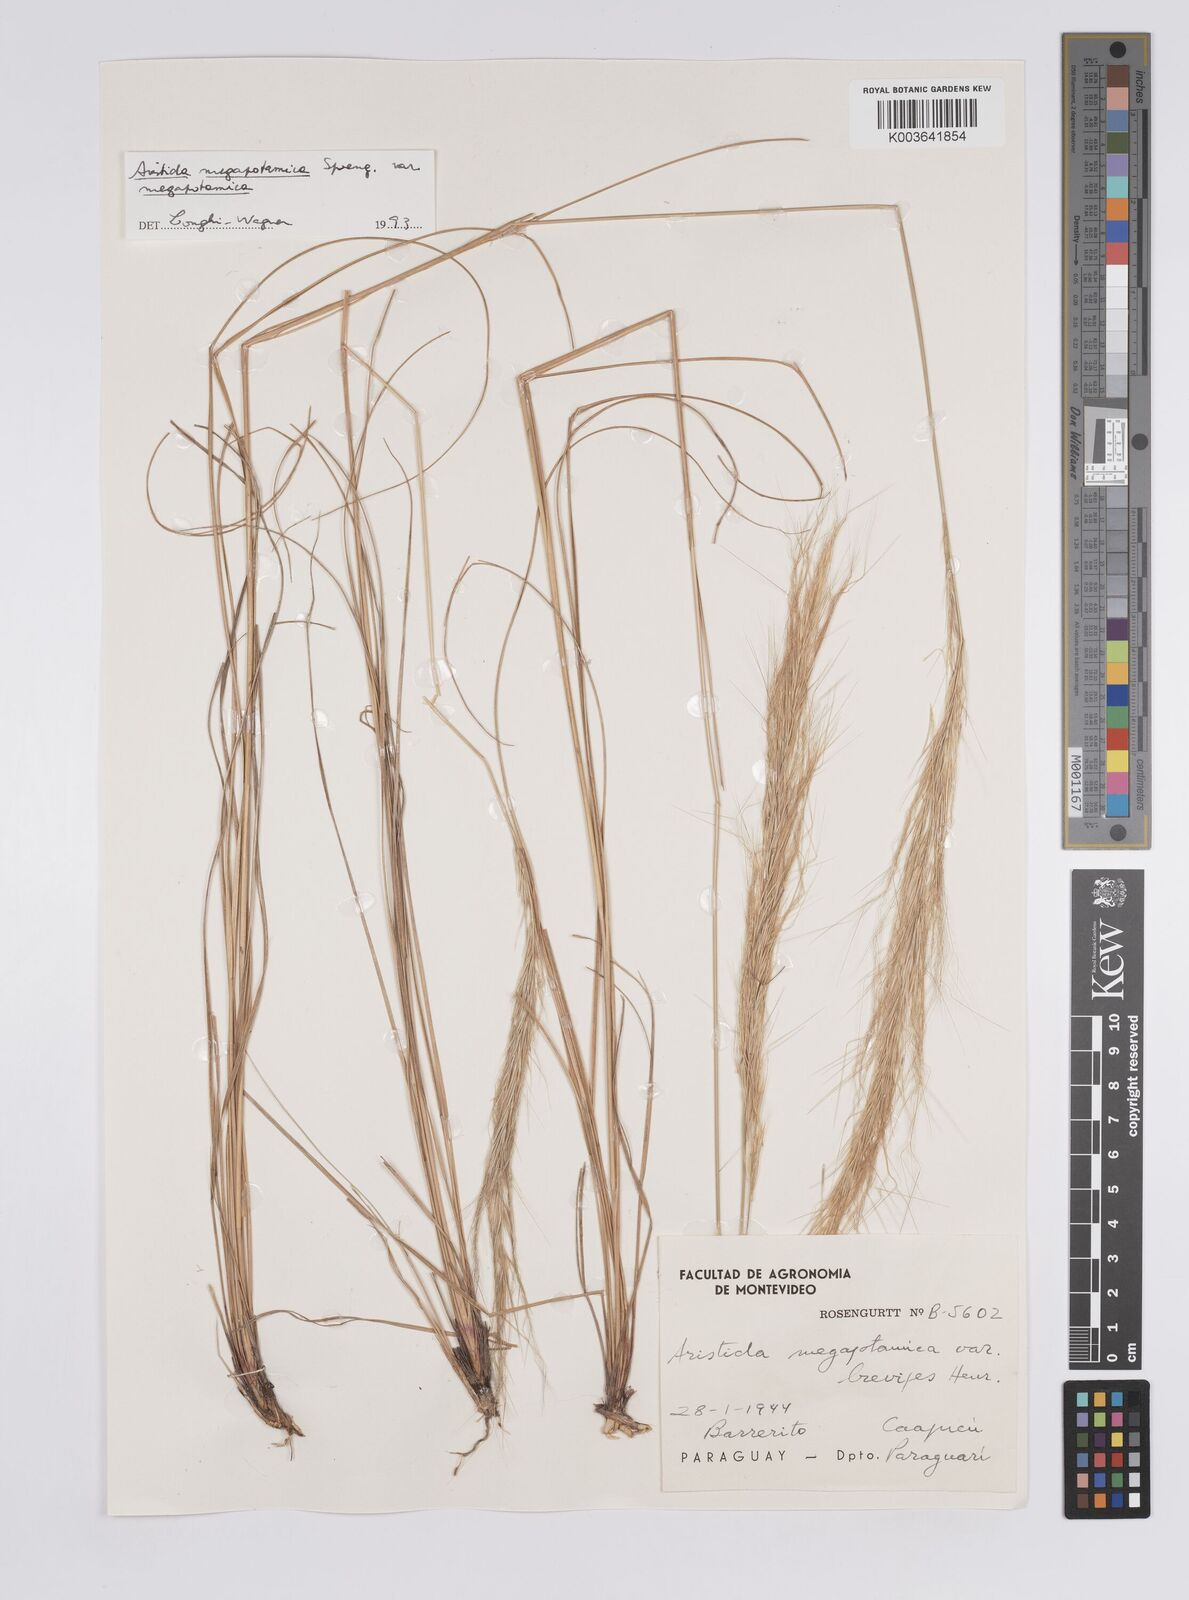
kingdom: Plantae
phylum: Tracheophyta
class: Liliopsida
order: Poales
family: Poaceae
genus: Aristida
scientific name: Aristida megapotamica
